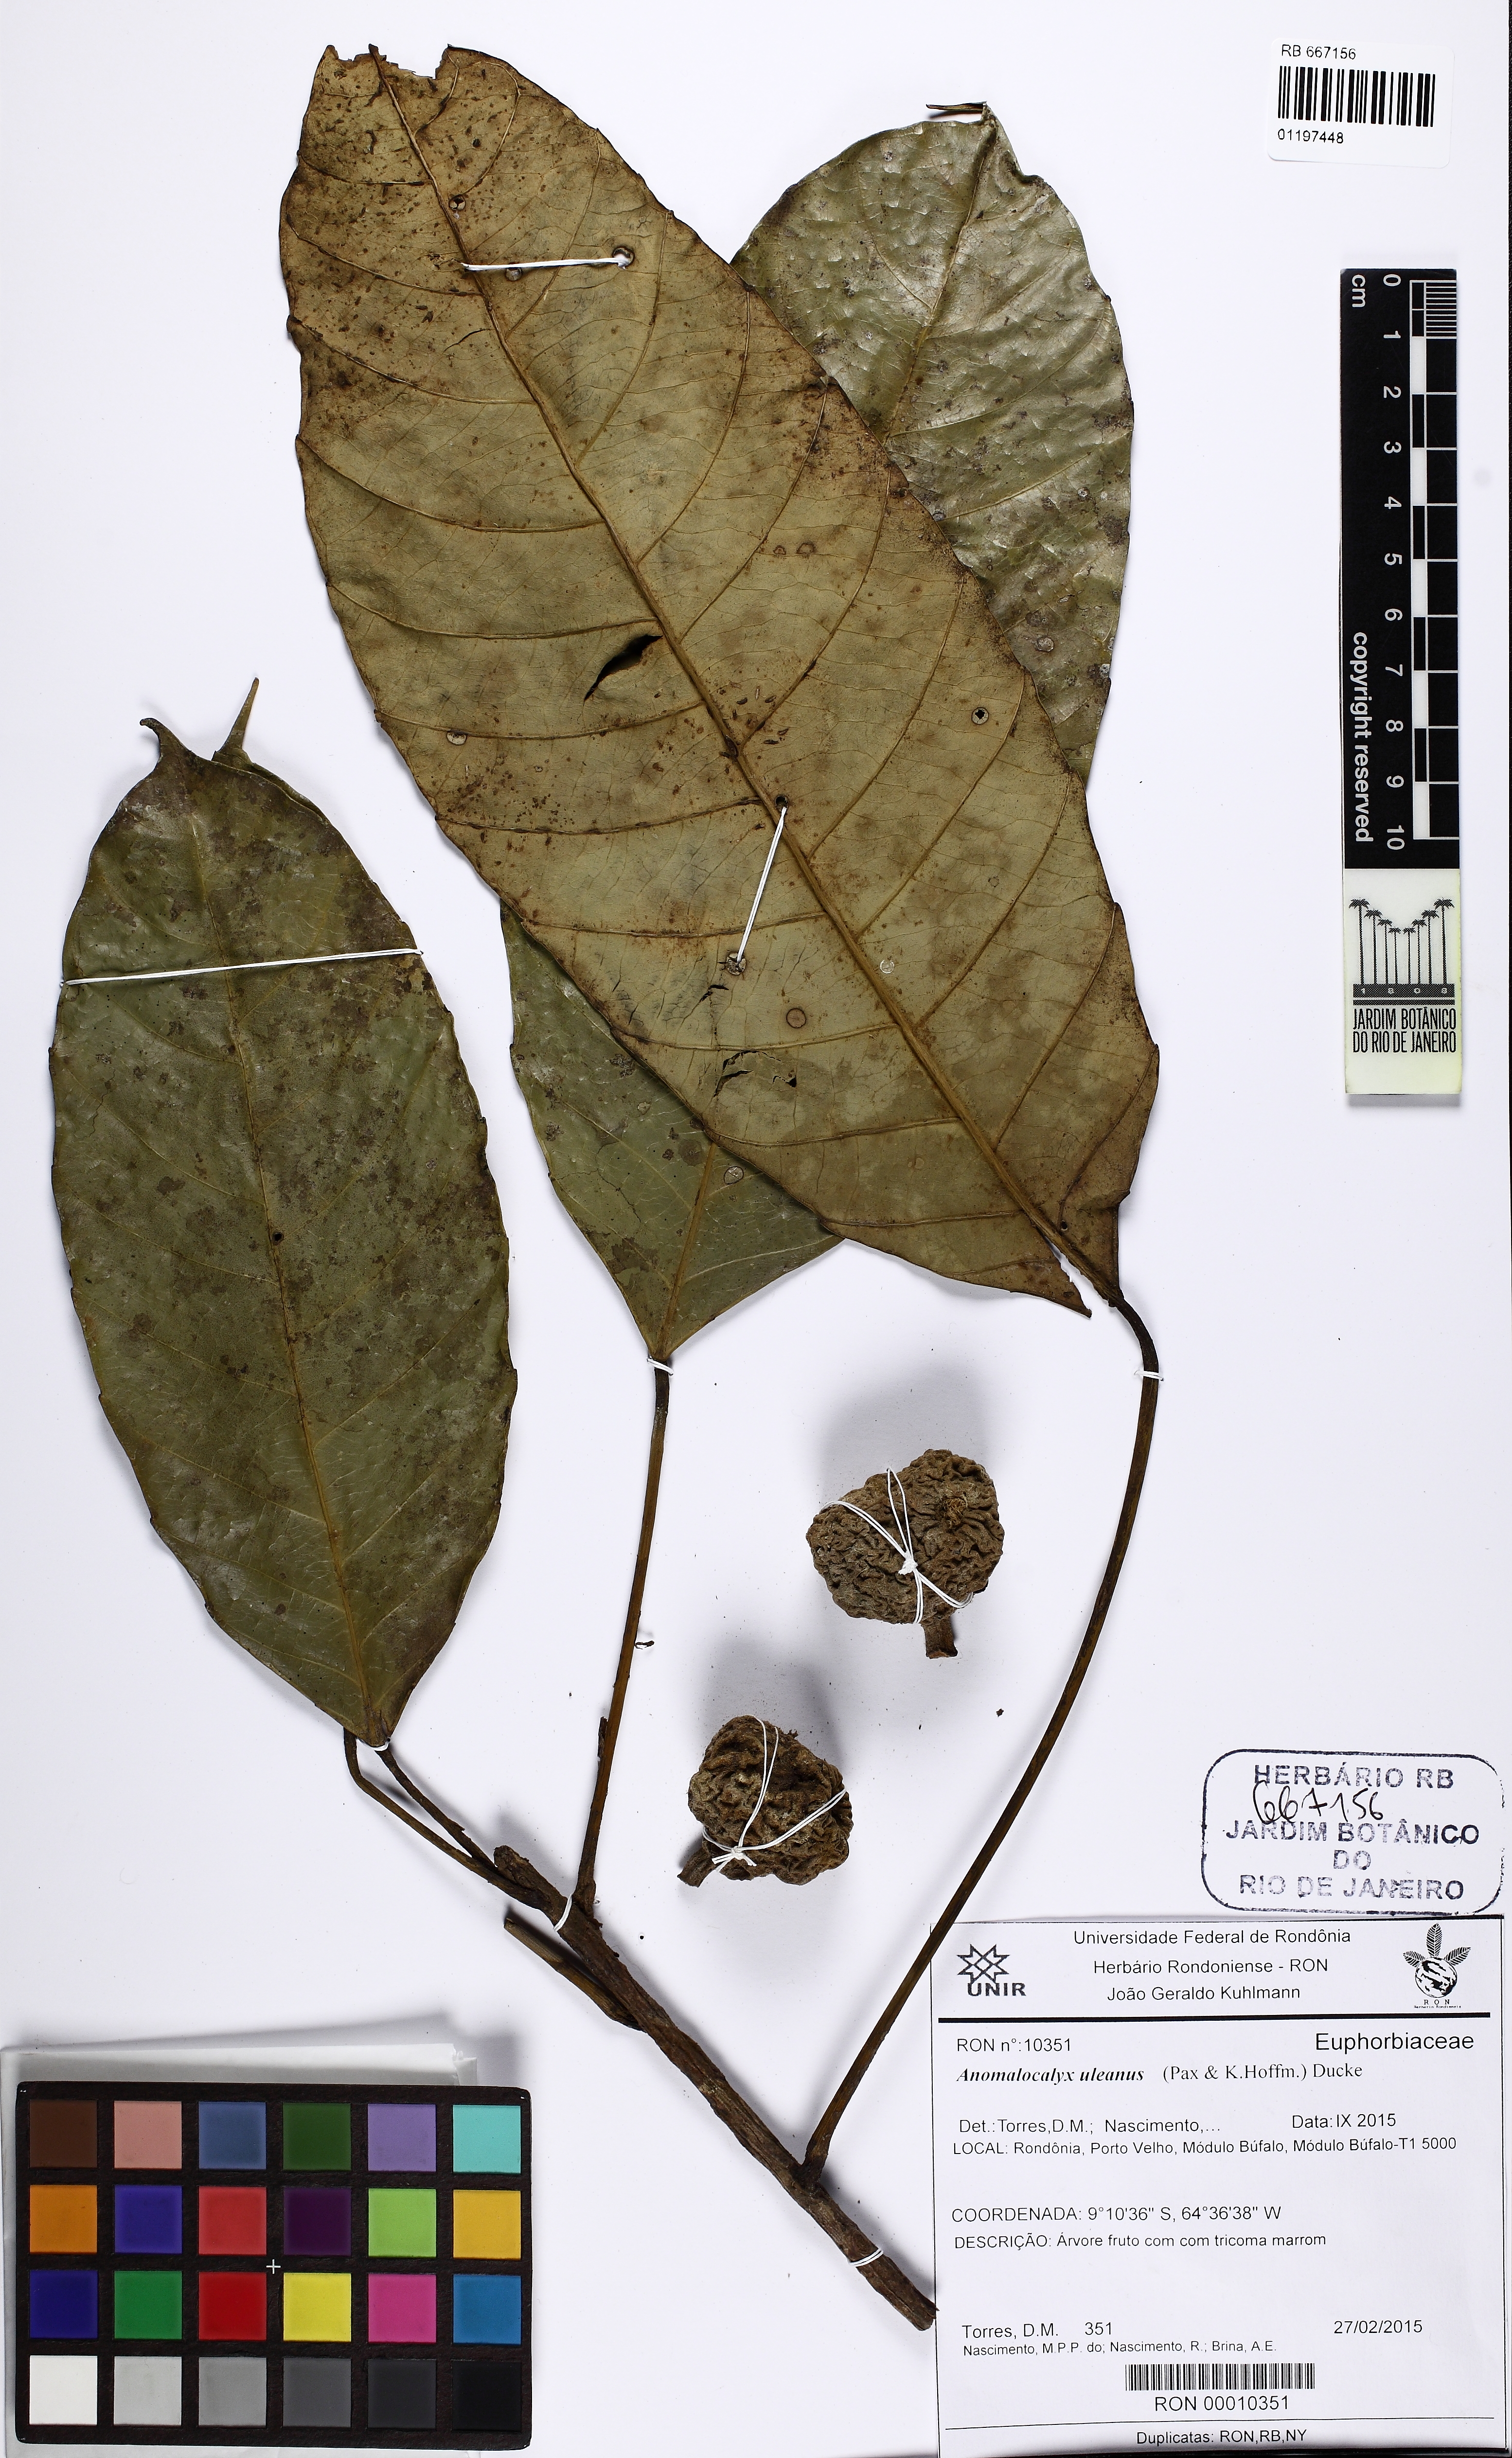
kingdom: Plantae
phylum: Tracheophyta
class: Magnoliopsida
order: Malpighiales
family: Euphorbiaceae
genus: Dodecastigma
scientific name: Dodecastigma uleanum
